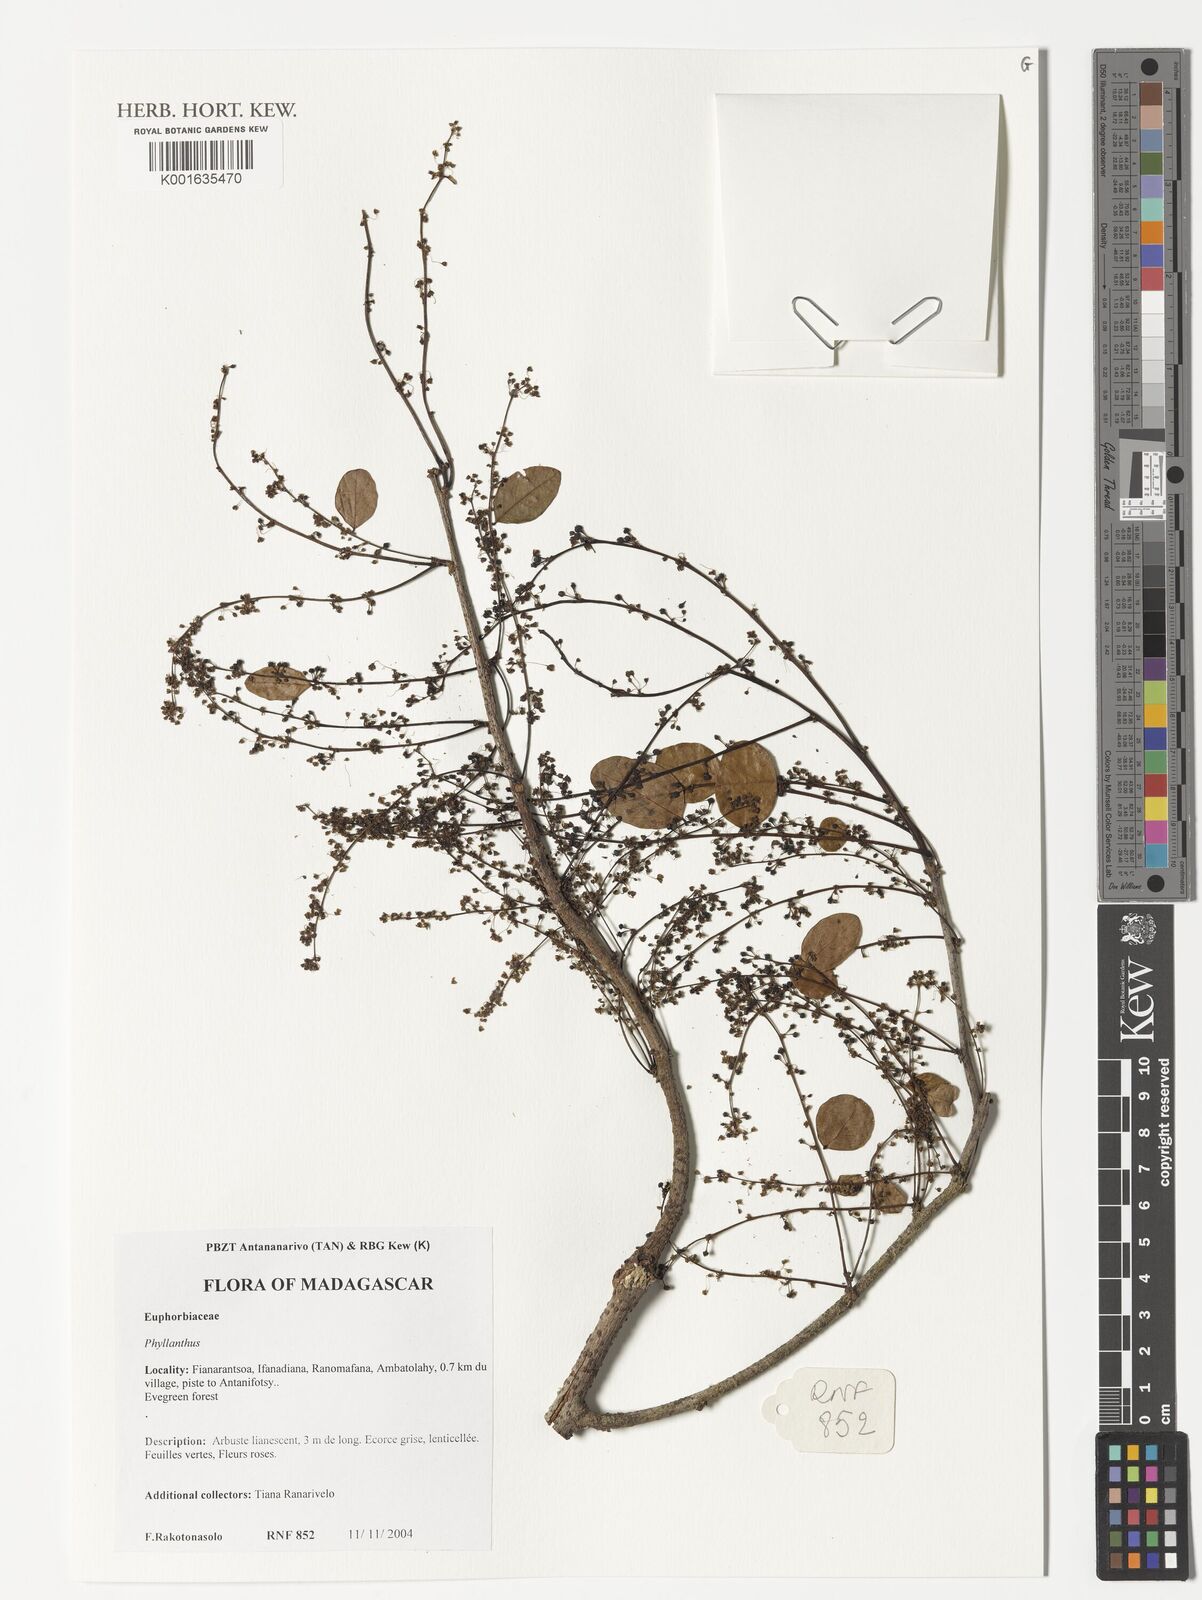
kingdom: Plantae
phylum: Tracheophyta
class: Magnoliopsida
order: Malpighiales
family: Phyllanthaceae
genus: Phyllanthus
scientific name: Phyllanthus
